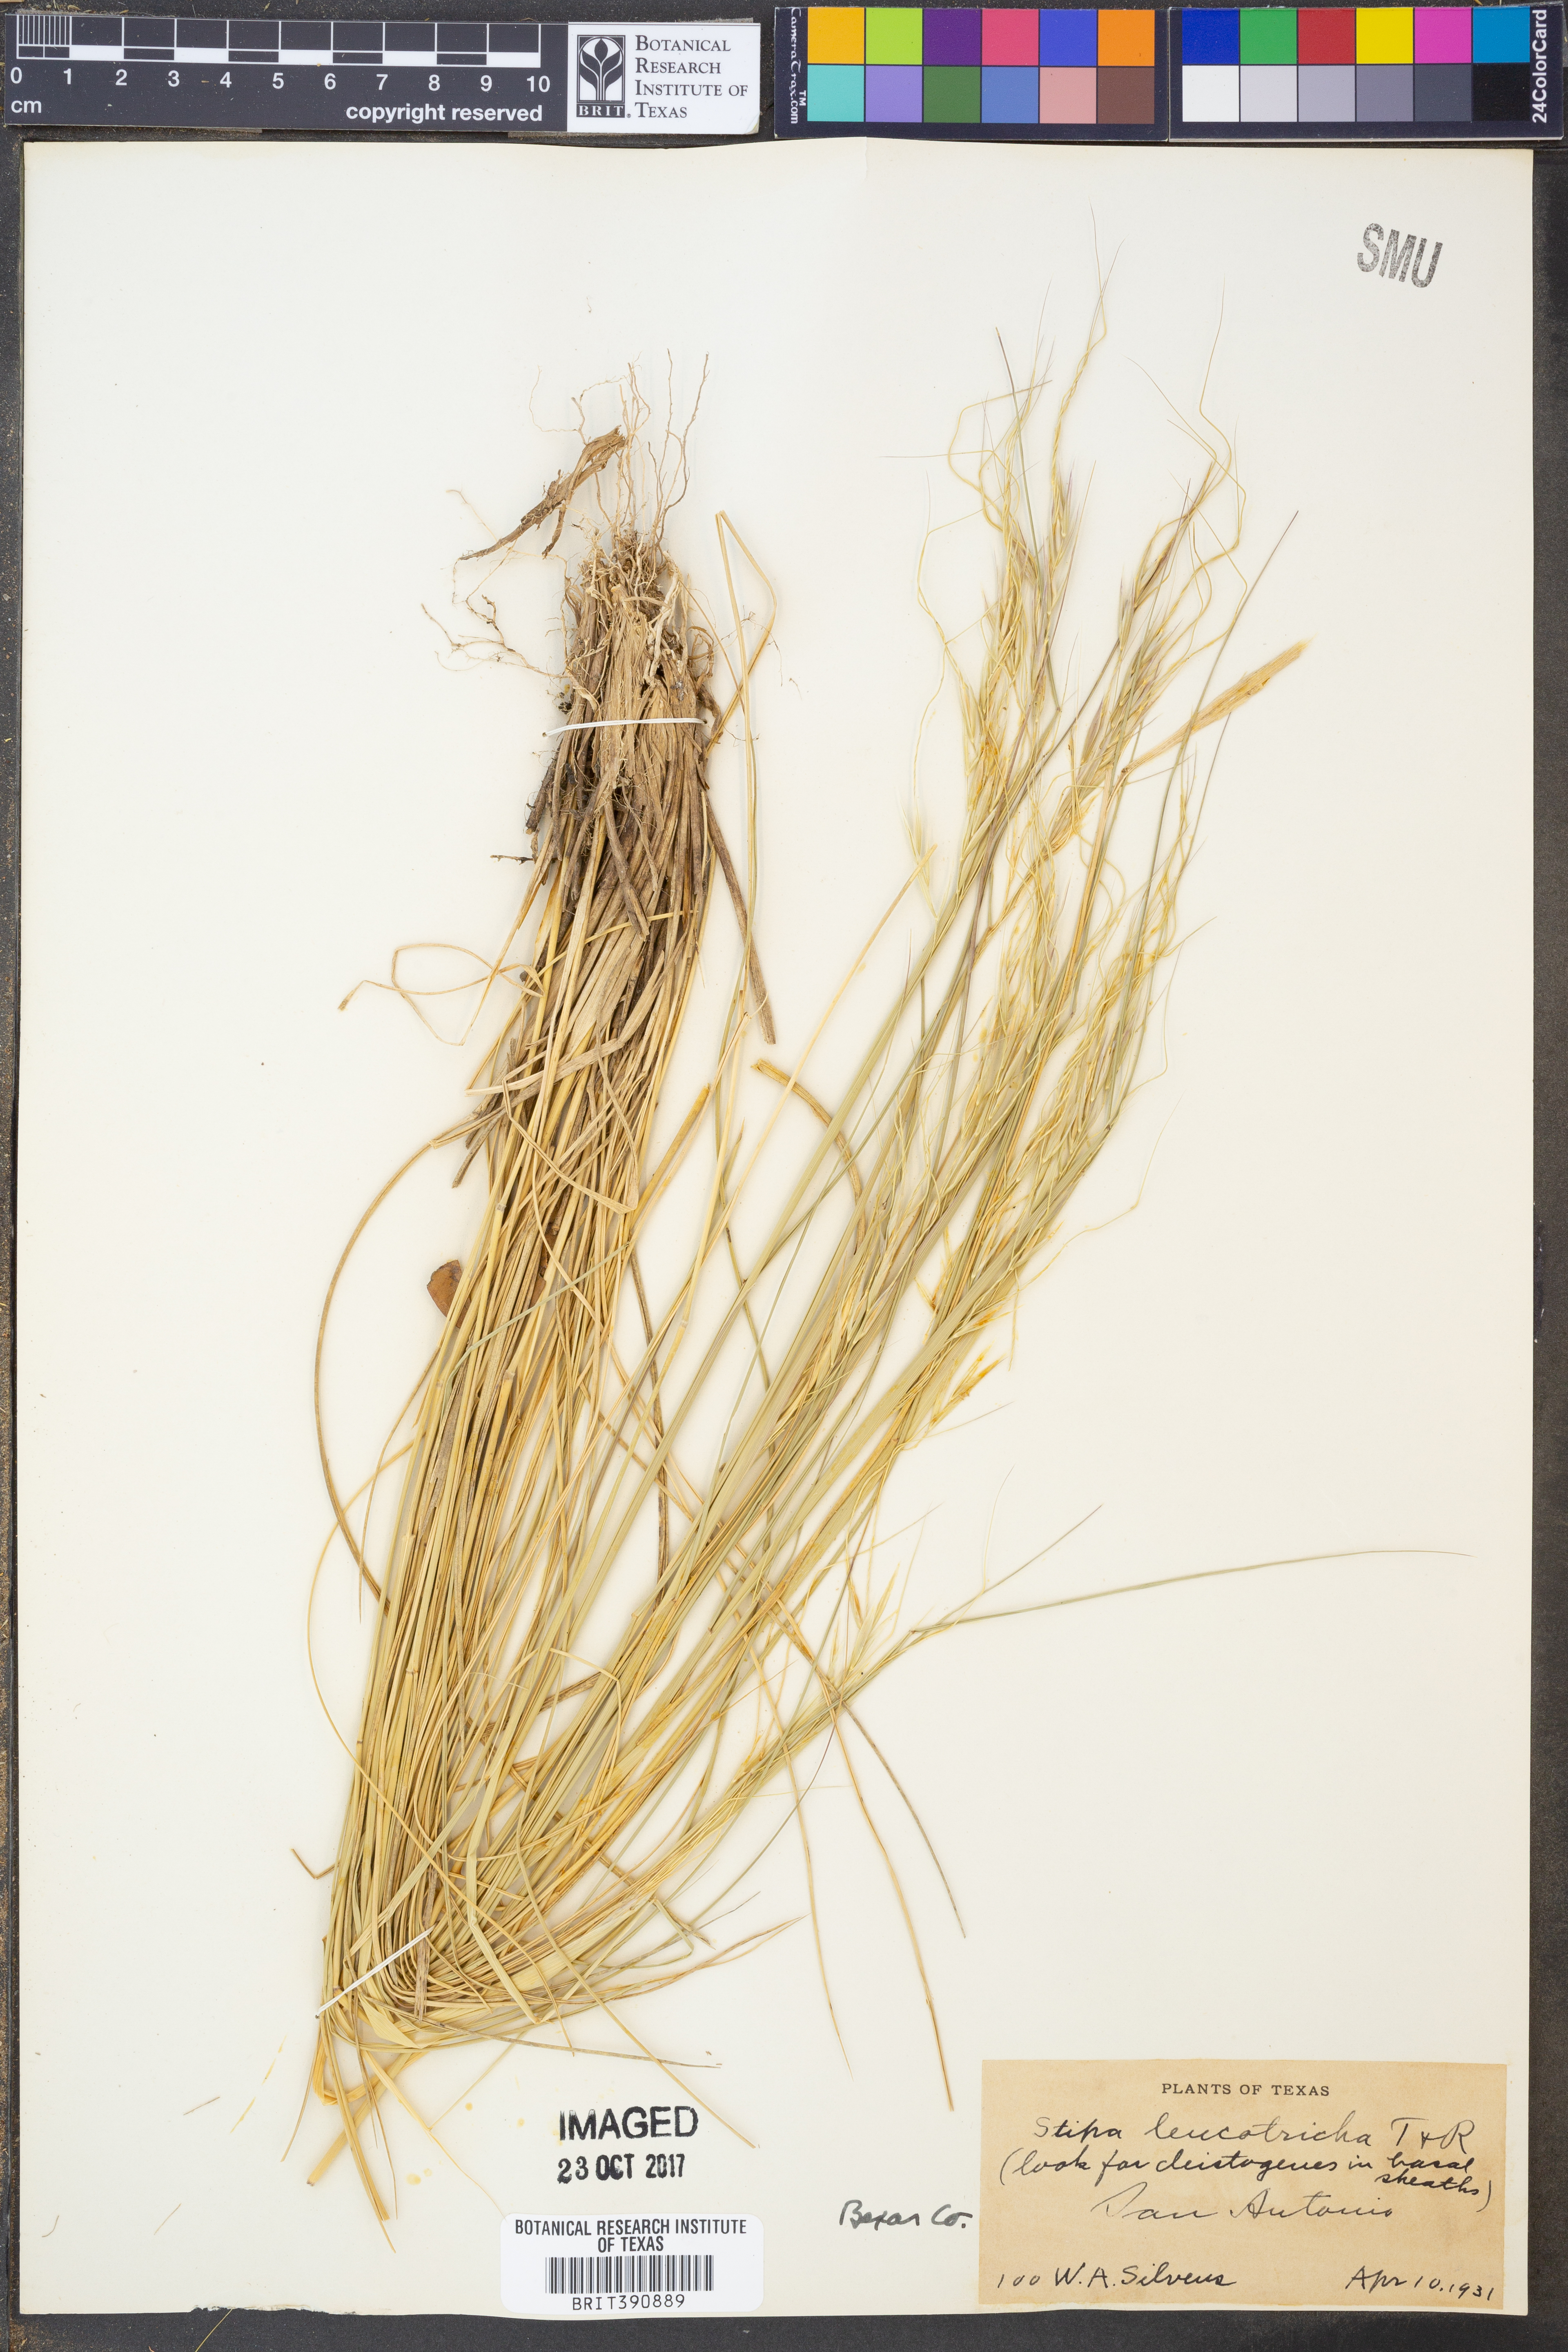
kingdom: Plantae
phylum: Tracheophyta
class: Liliopsida
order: Poales
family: Poaceae
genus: Nassella
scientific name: Nassella leucotricha
